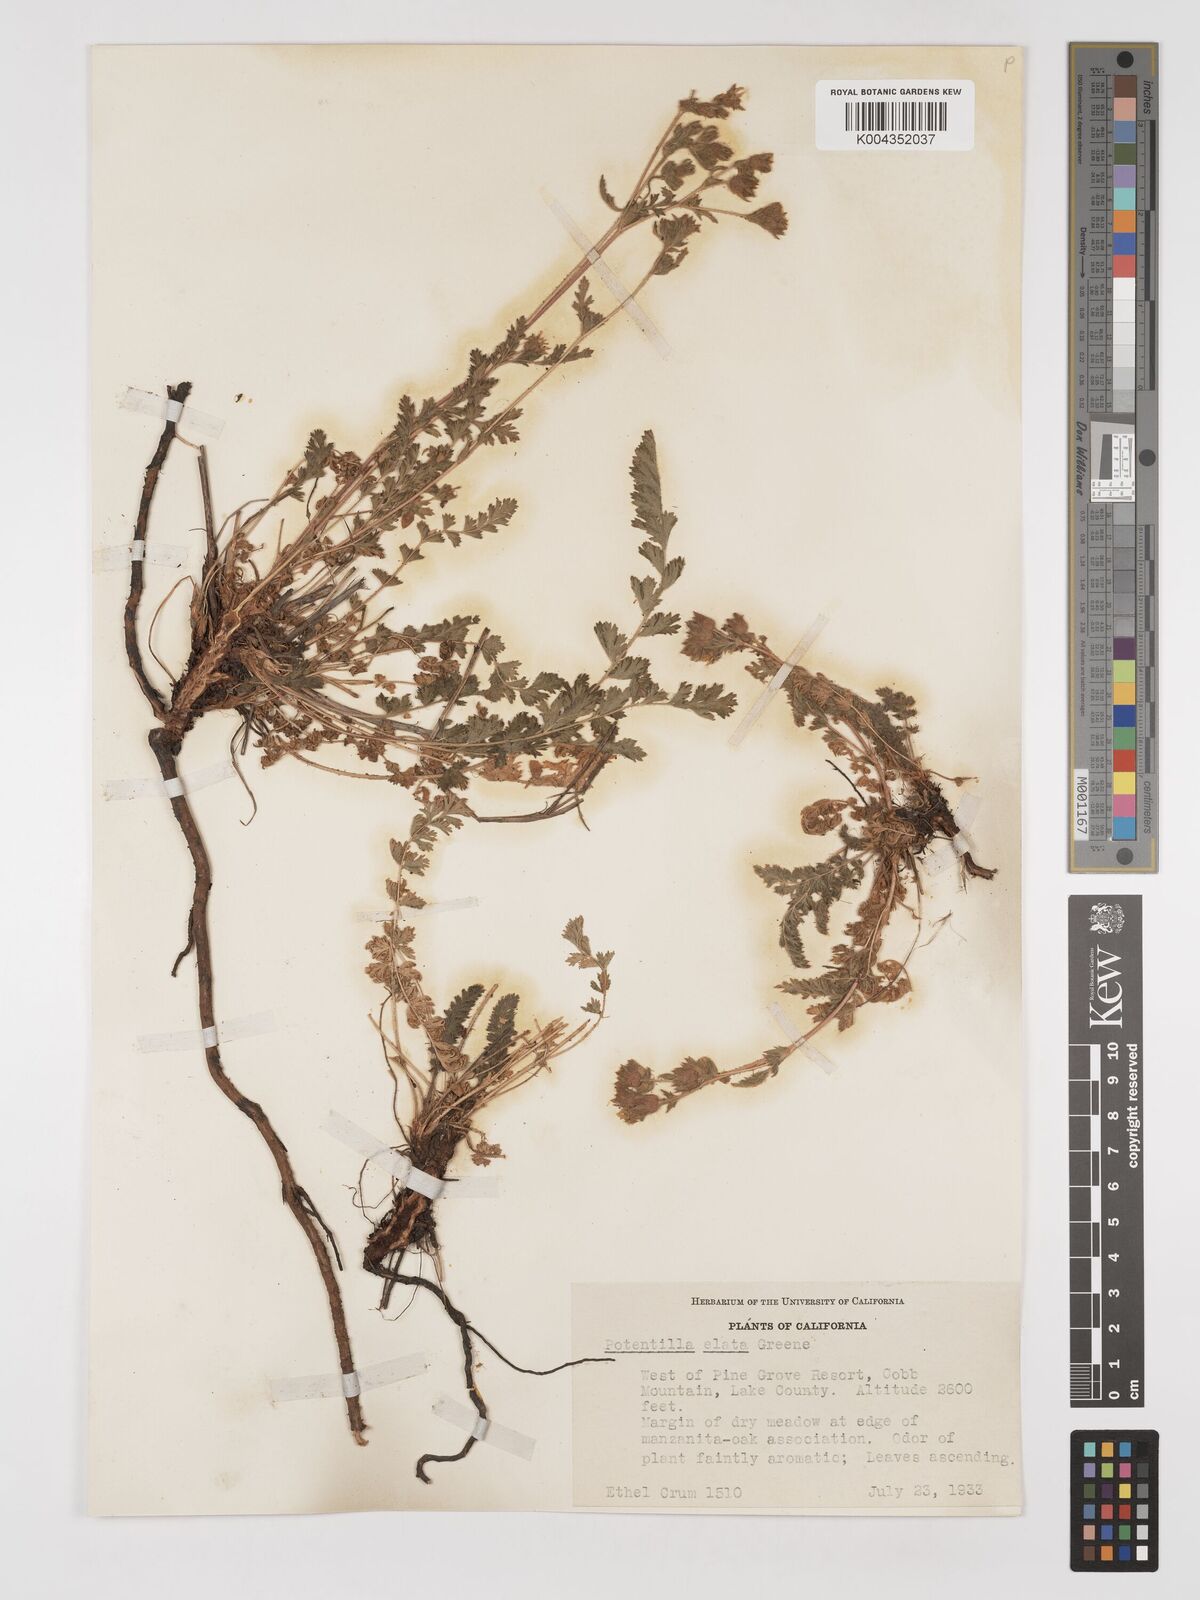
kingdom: Plantae
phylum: Tracheophyta
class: Magnoliopsida
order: Rosales
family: Rosaceae
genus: Potentilla
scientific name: Potentilla californica
